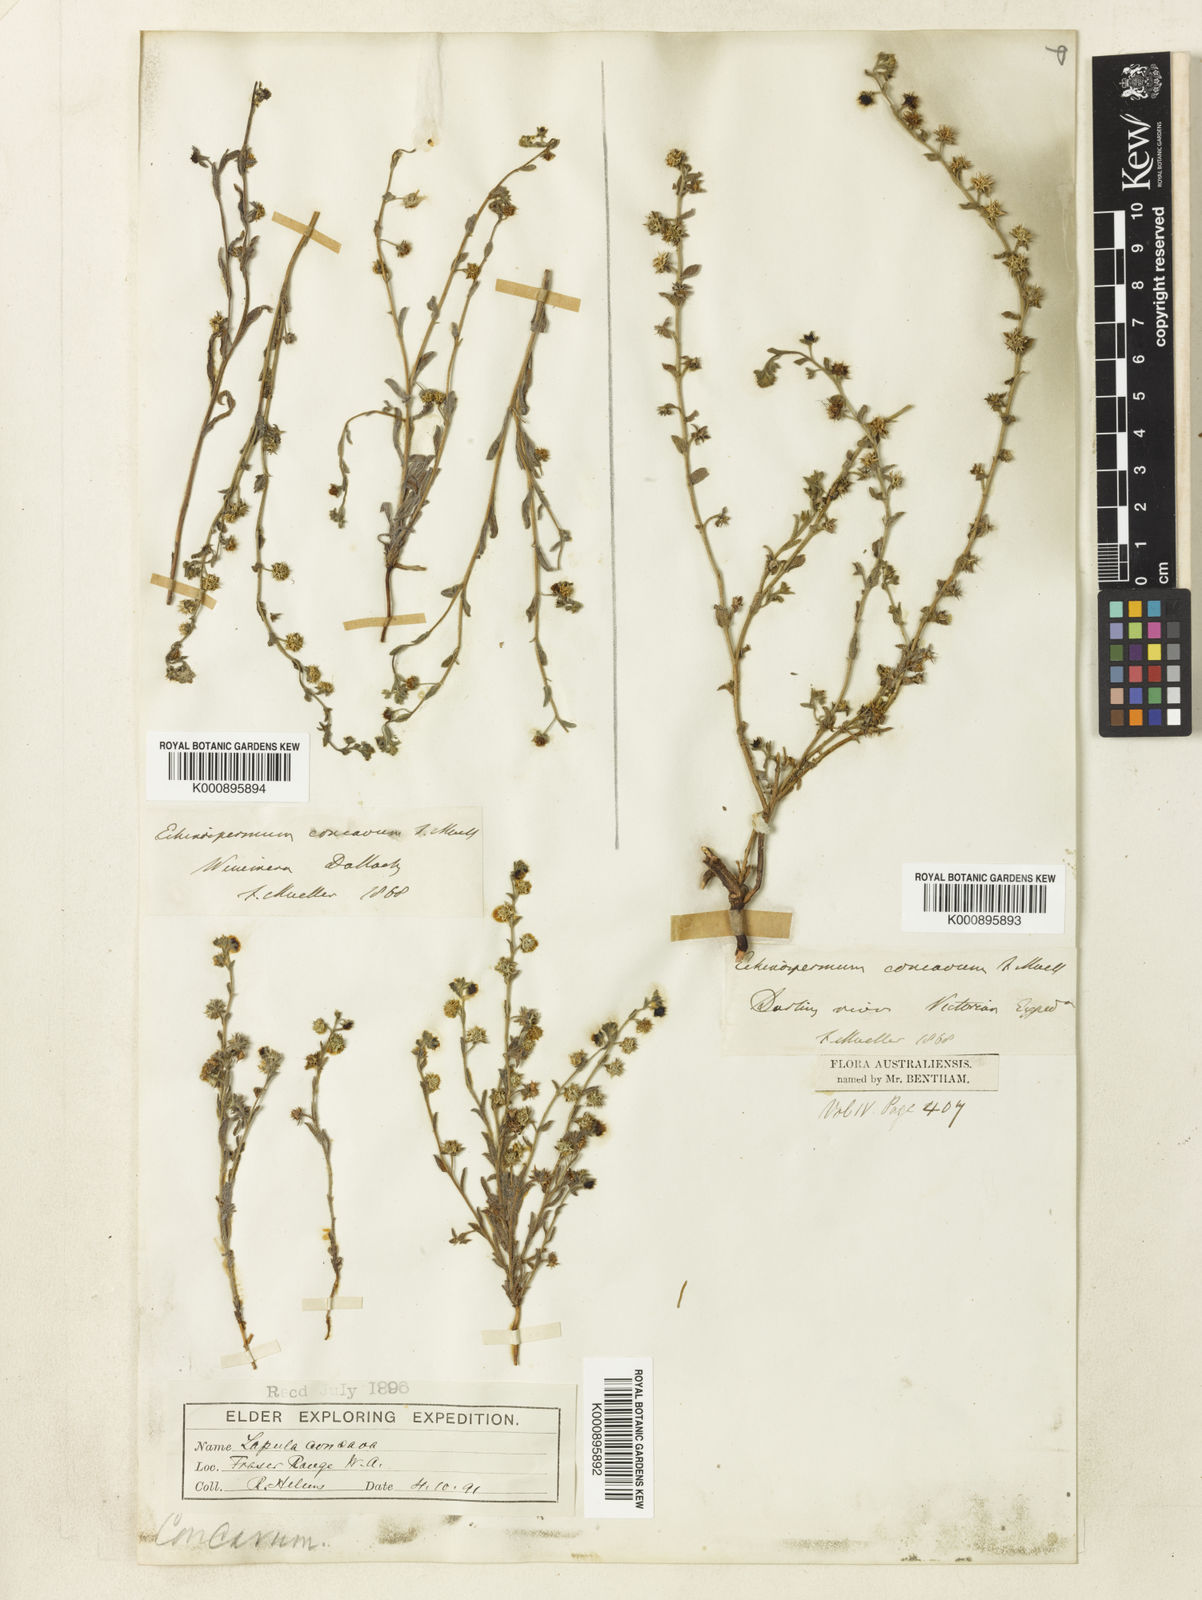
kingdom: Plantae
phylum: Tracheophyta
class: Magnoliopsida
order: Boraginales
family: Boraginaceae
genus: Omphalolappula
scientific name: Omphalolappula concava
